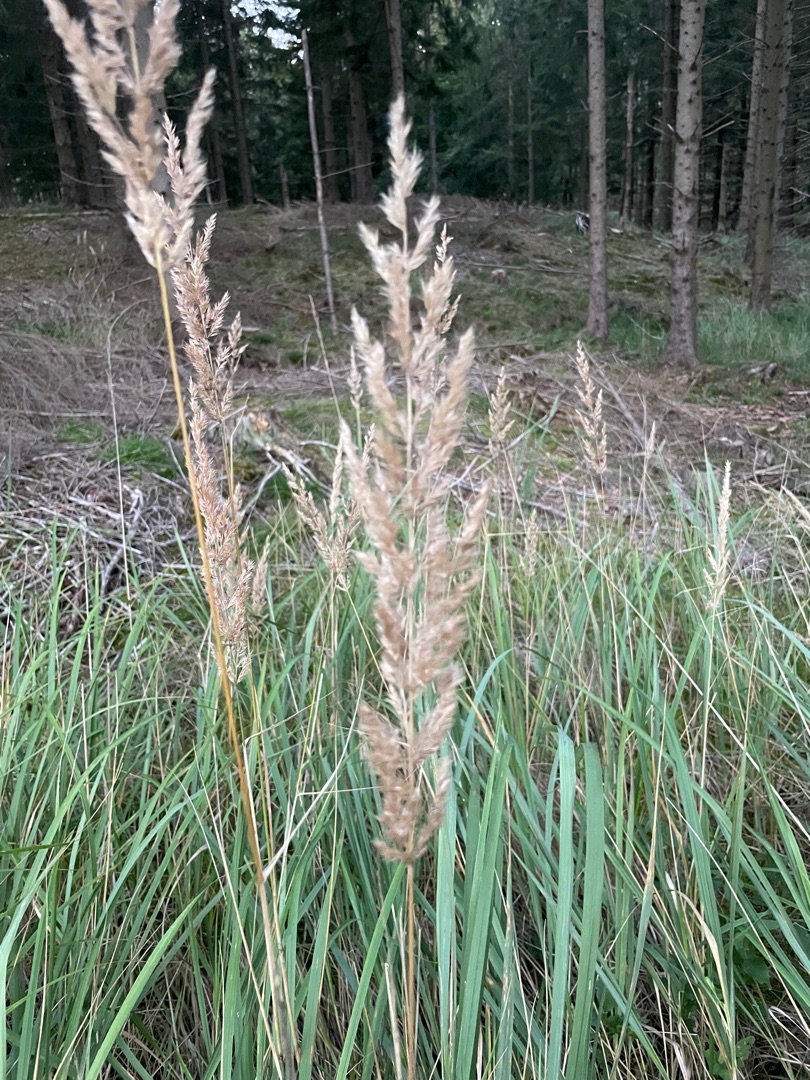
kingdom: Plantae
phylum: Tracheophyta
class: Liliopsida
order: Poales
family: Poaceae
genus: Calamagrostis
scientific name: Calamagrostis epigejos
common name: Bjerg-rørhvene
